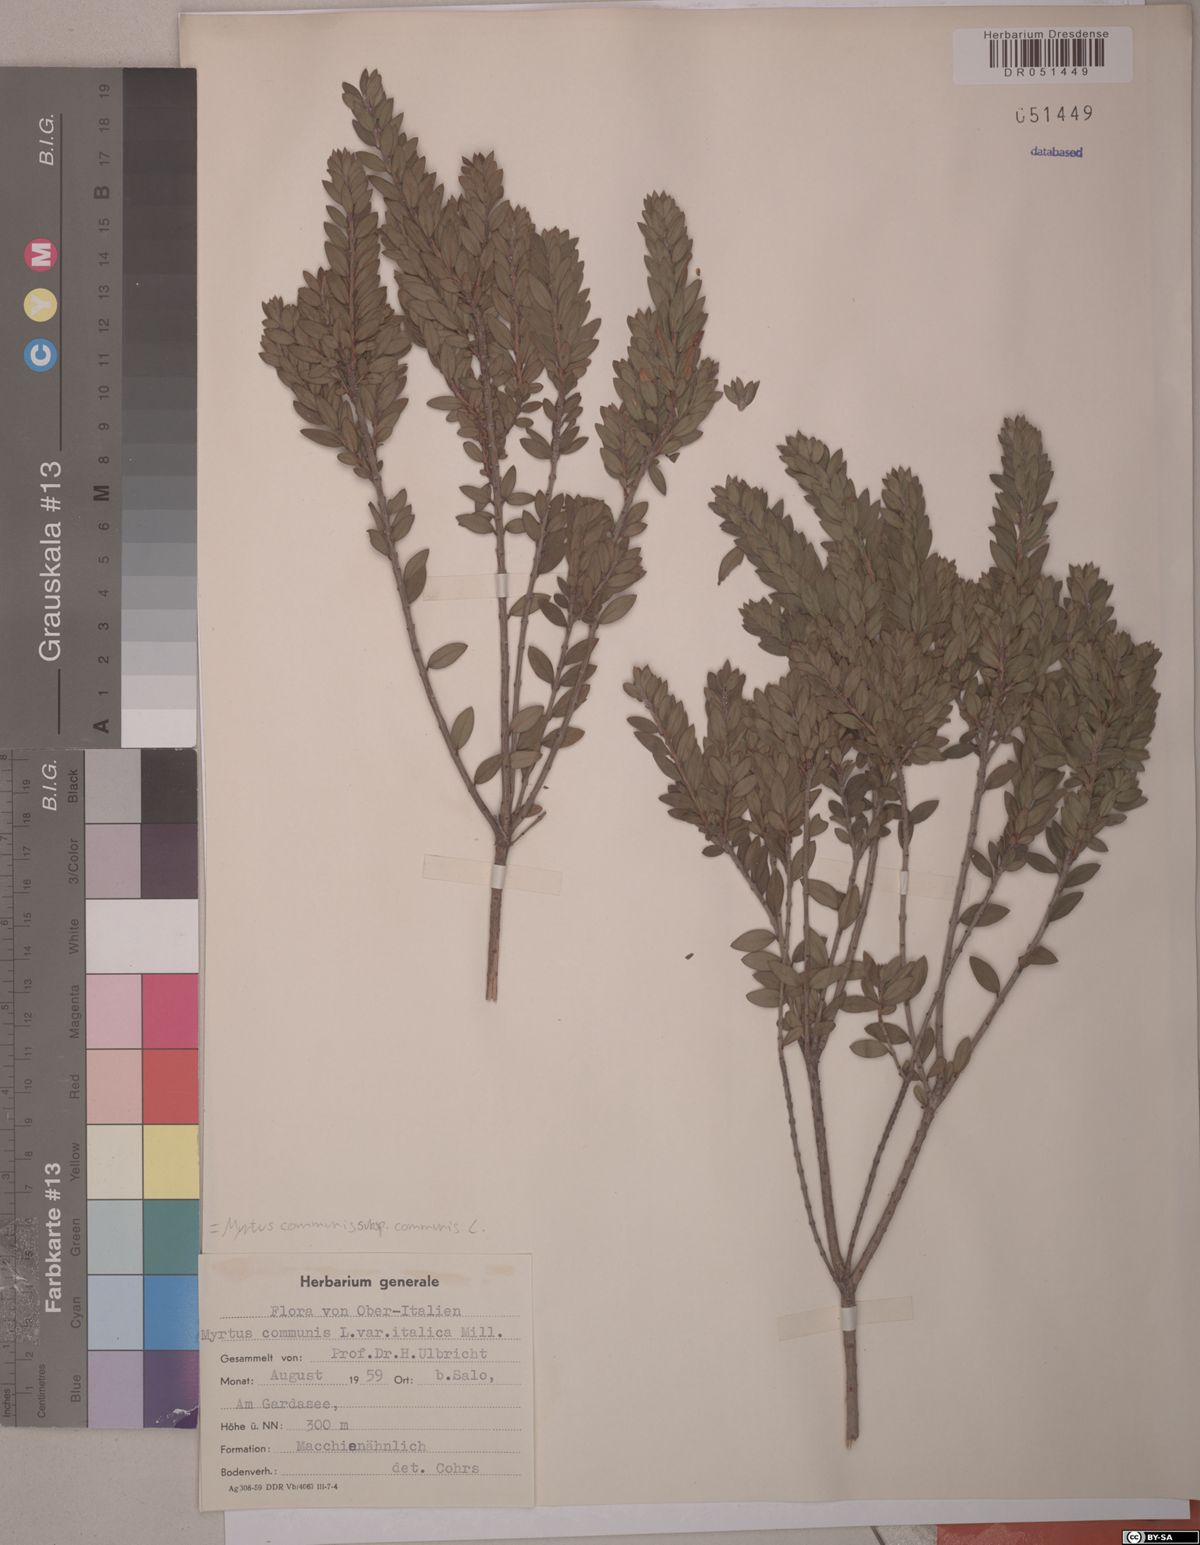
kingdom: Plantae
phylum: Tracheophyta
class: Magnoliopsida
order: Myrtales
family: Myrtaceae
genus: Myrtus
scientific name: Myrtus communis
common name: Myrtle
